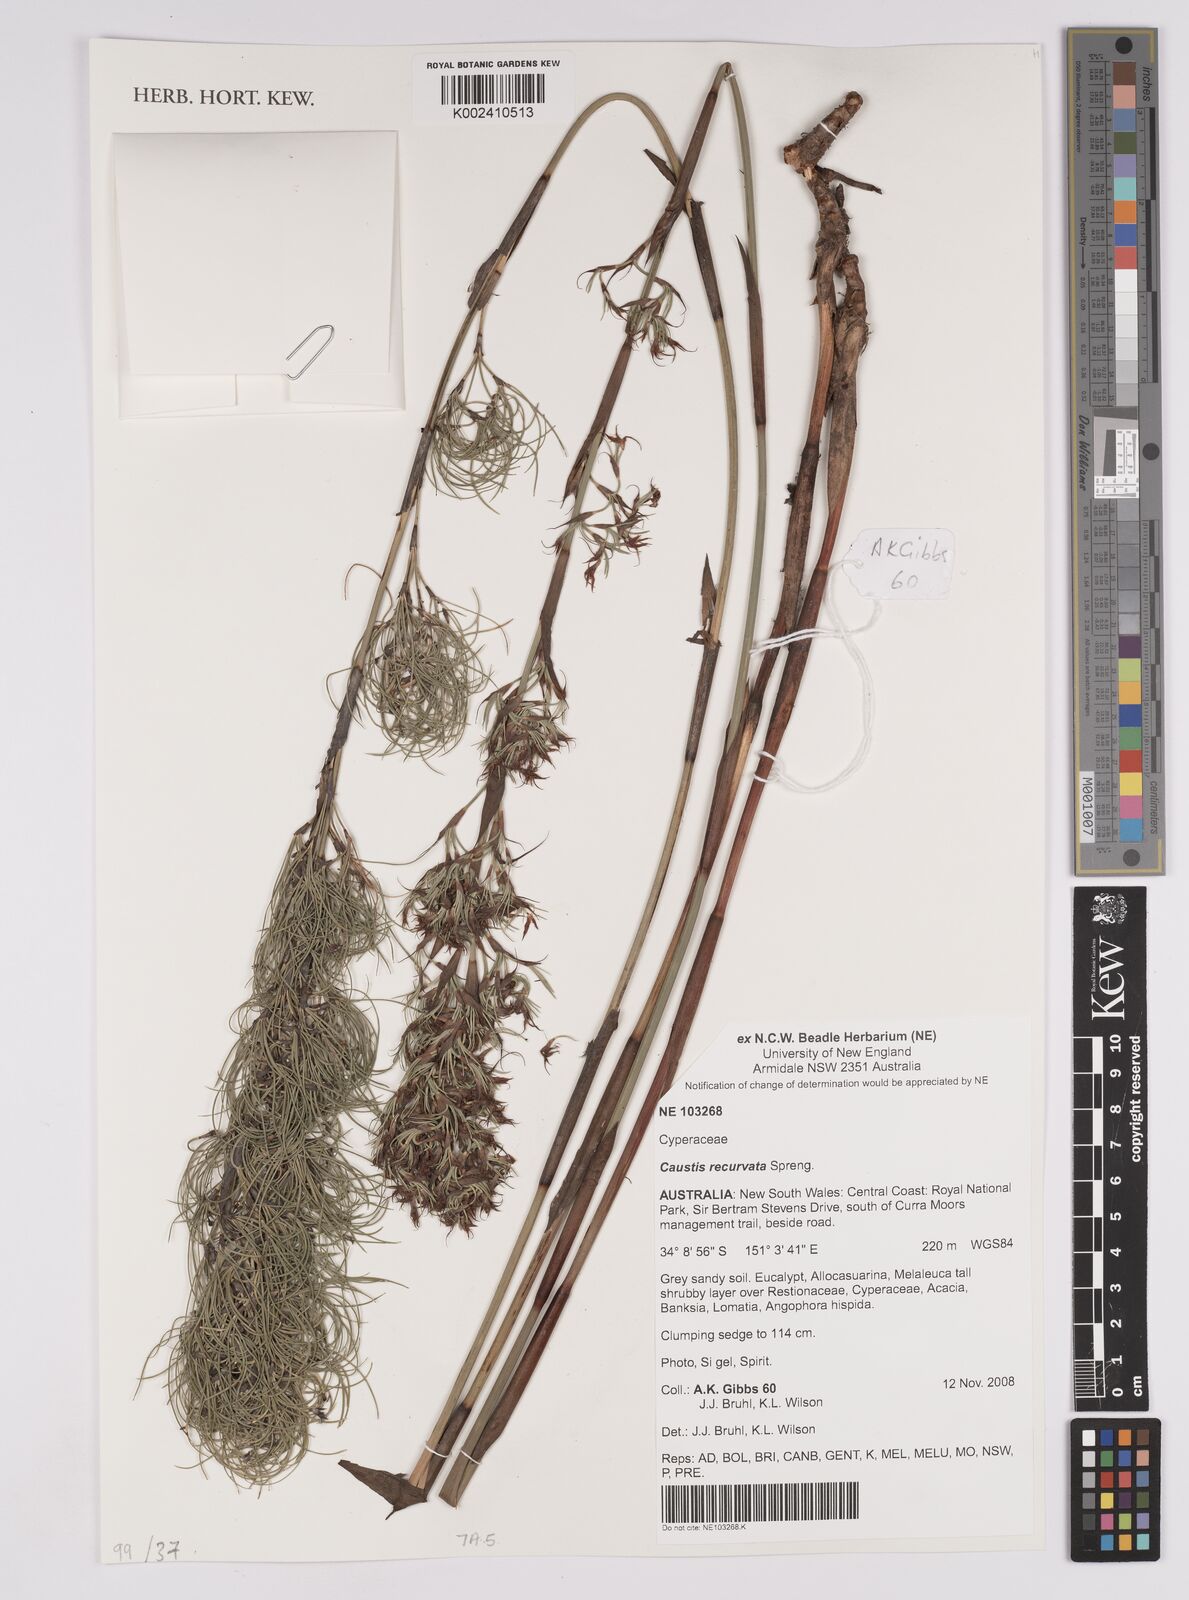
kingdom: Plantae
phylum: Tracheophyta
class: Liliopsida
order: Poales
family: Cyperaceae
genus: Caustis
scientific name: Caustis recurvata
